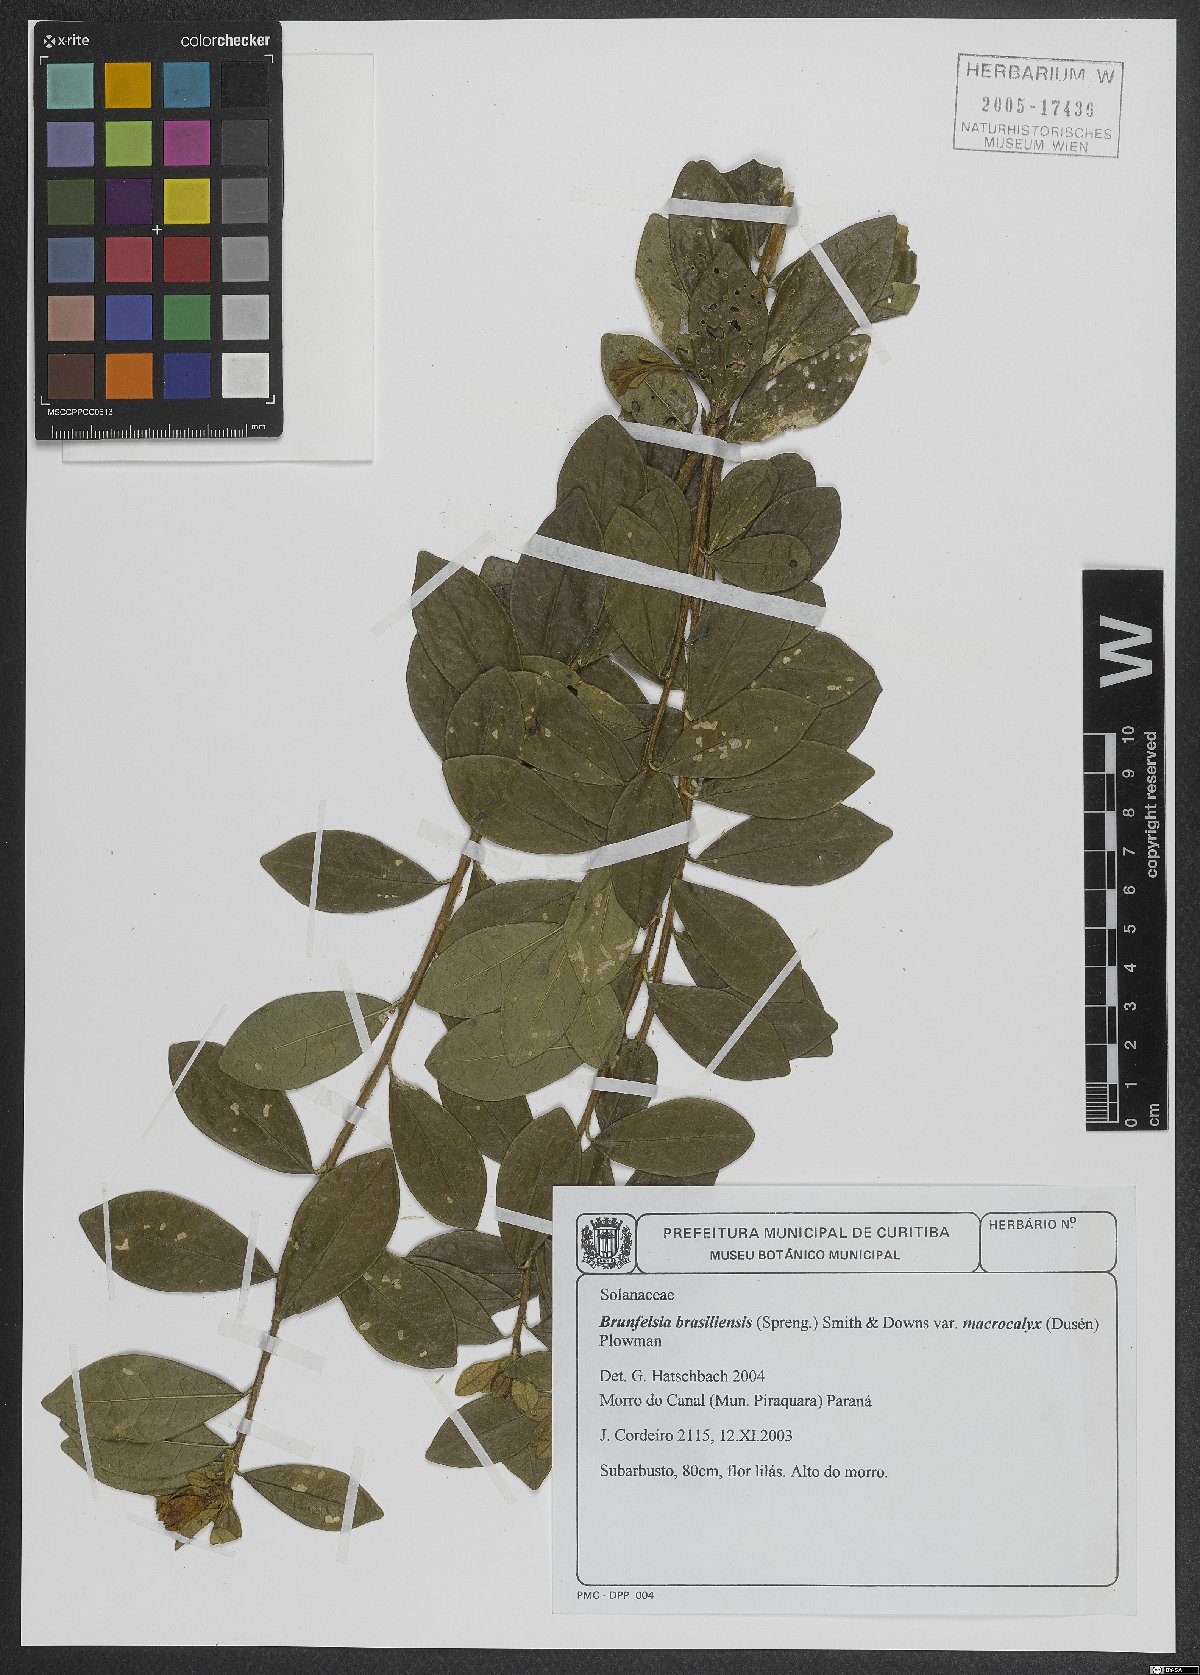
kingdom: Plantae
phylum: Tracheophyta
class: Magnoliopsida
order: Solanales
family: Solanaceae
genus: Brunfelsia
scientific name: Brunfelsia brasiliensis
